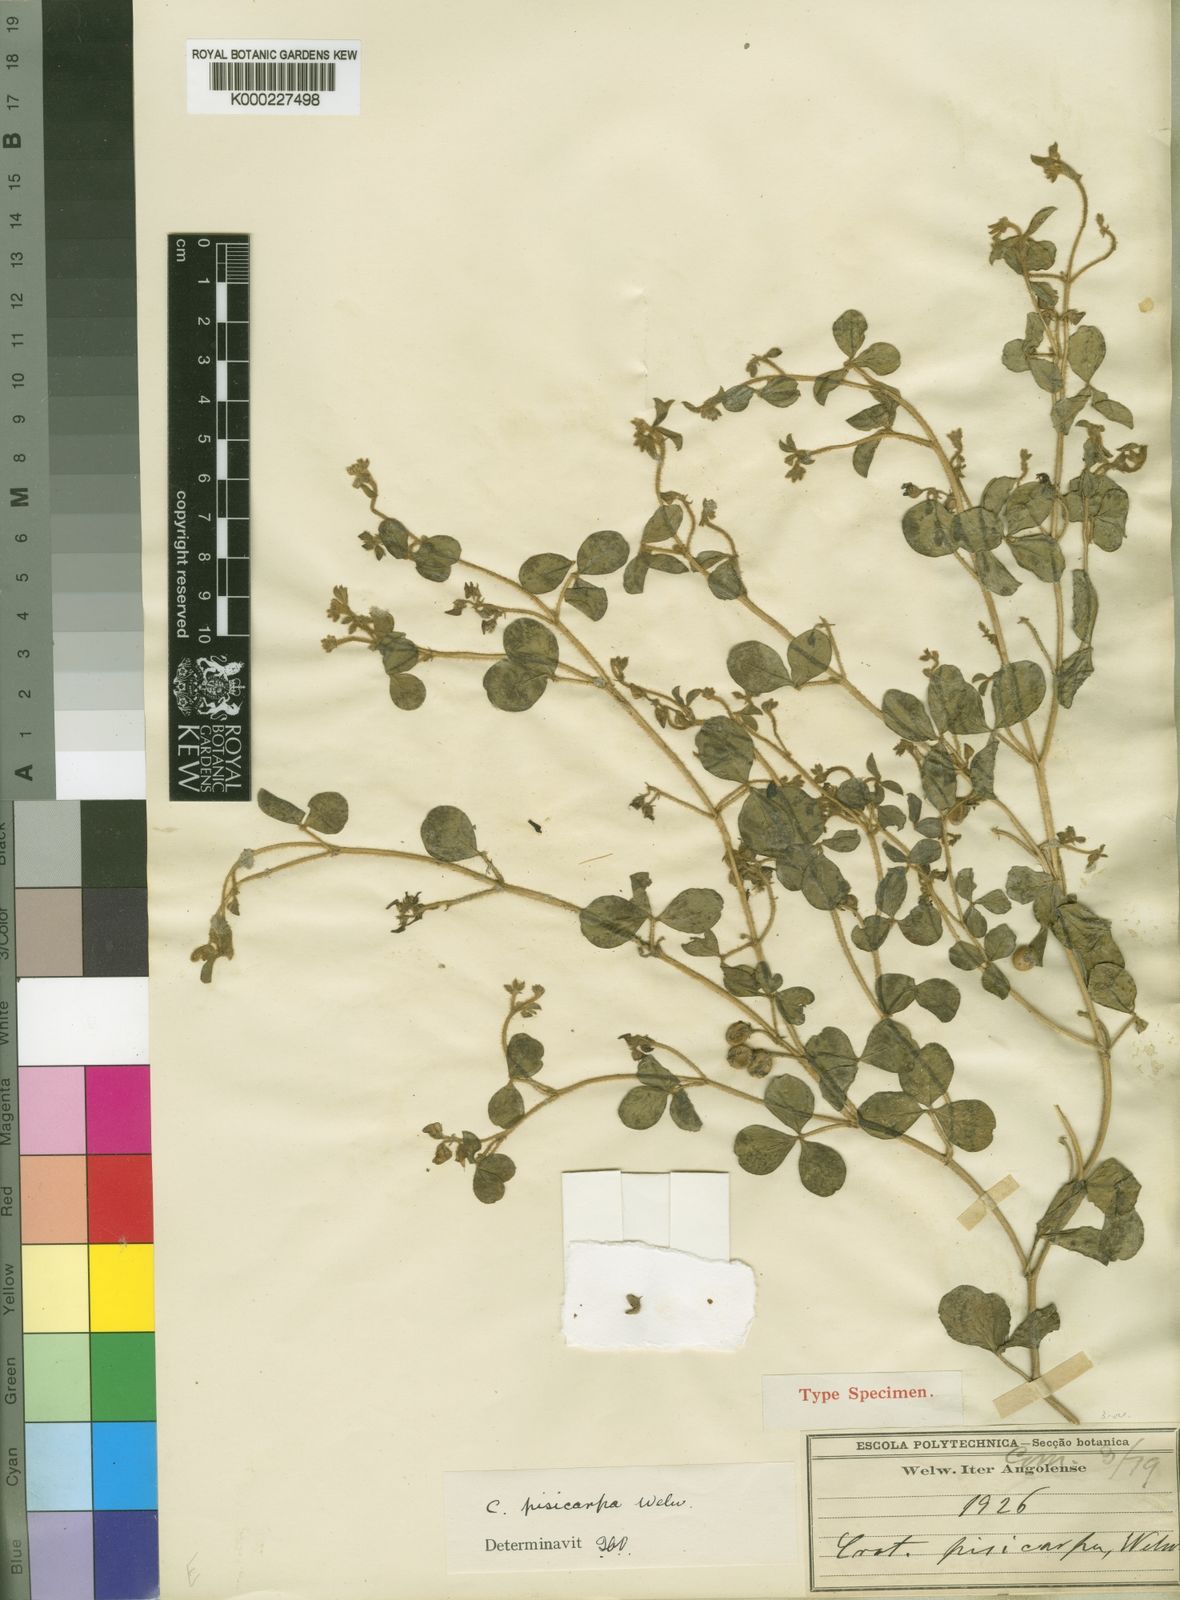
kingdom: Plantae
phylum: Tracheophyta
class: Magnoliopsida
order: Fabales
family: Fabaceae
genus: Crotalaria
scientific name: Crotalaria pisicarpa
